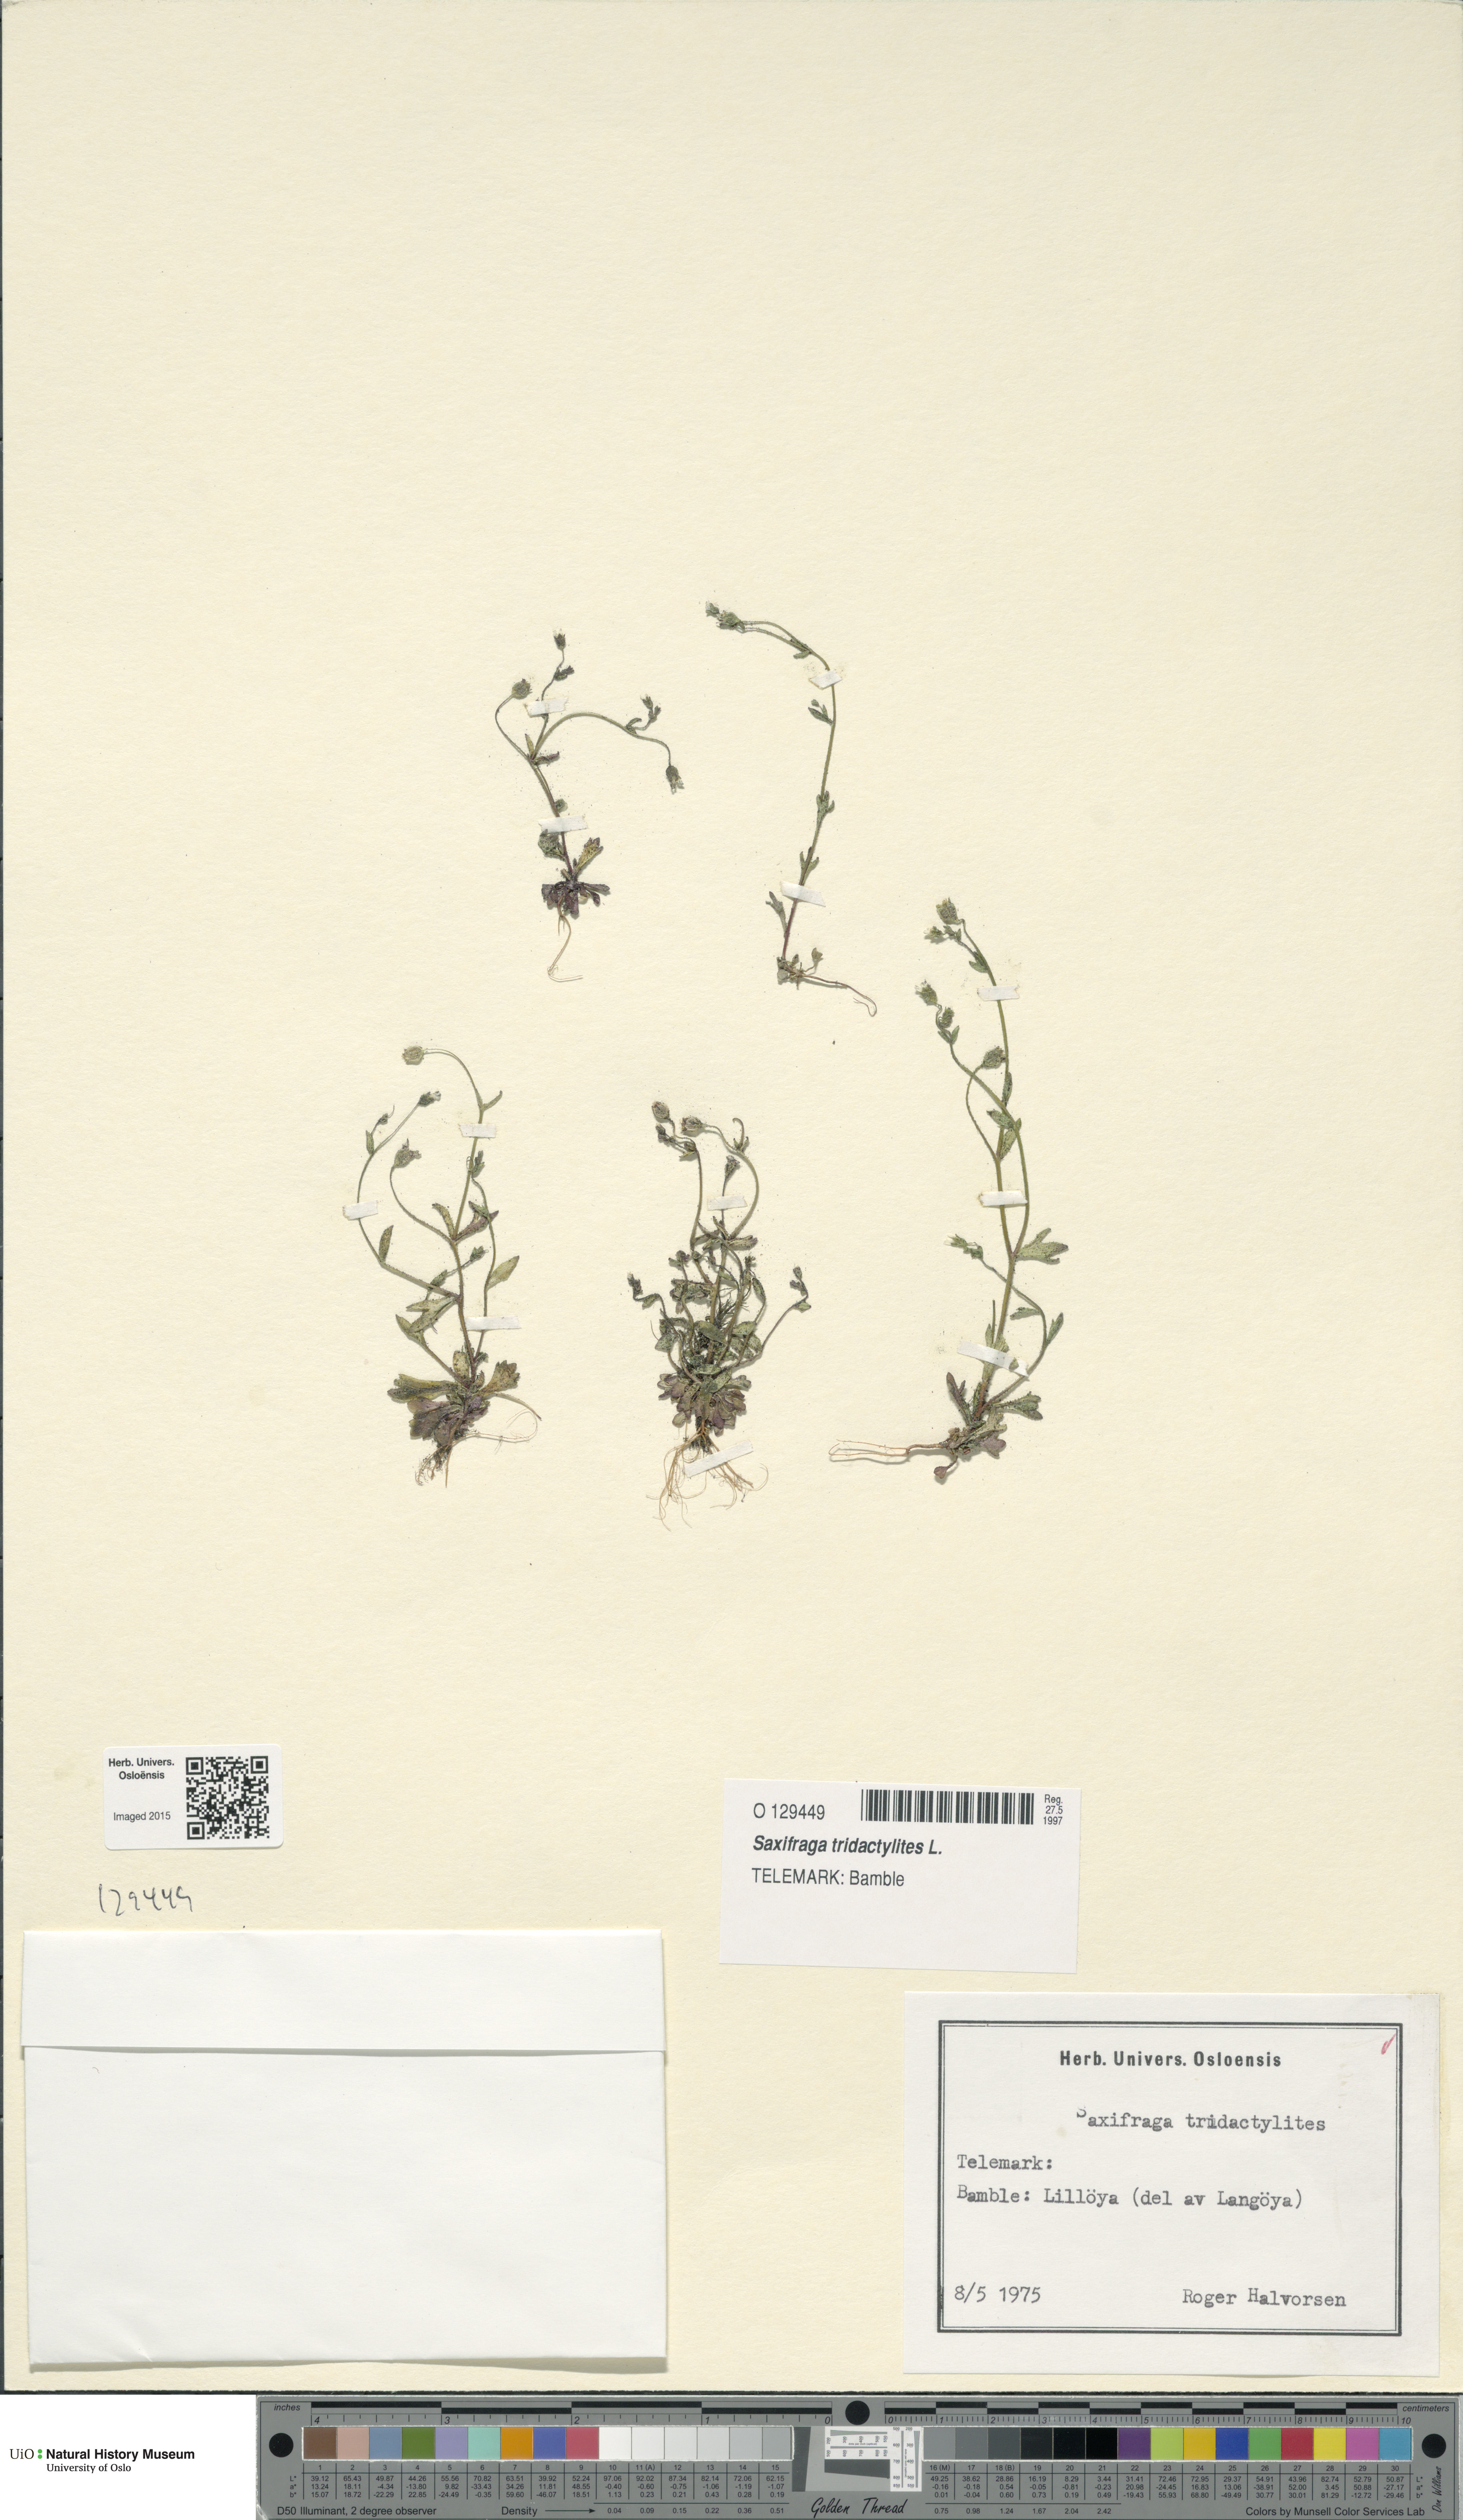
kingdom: Plantae
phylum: Tracheophyta
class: Magnoliopsida
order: Saxifragales
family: Saxifragaceae
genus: Saxifraga
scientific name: Saxifraga tridactylites
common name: Rue-leaved saxifrage
